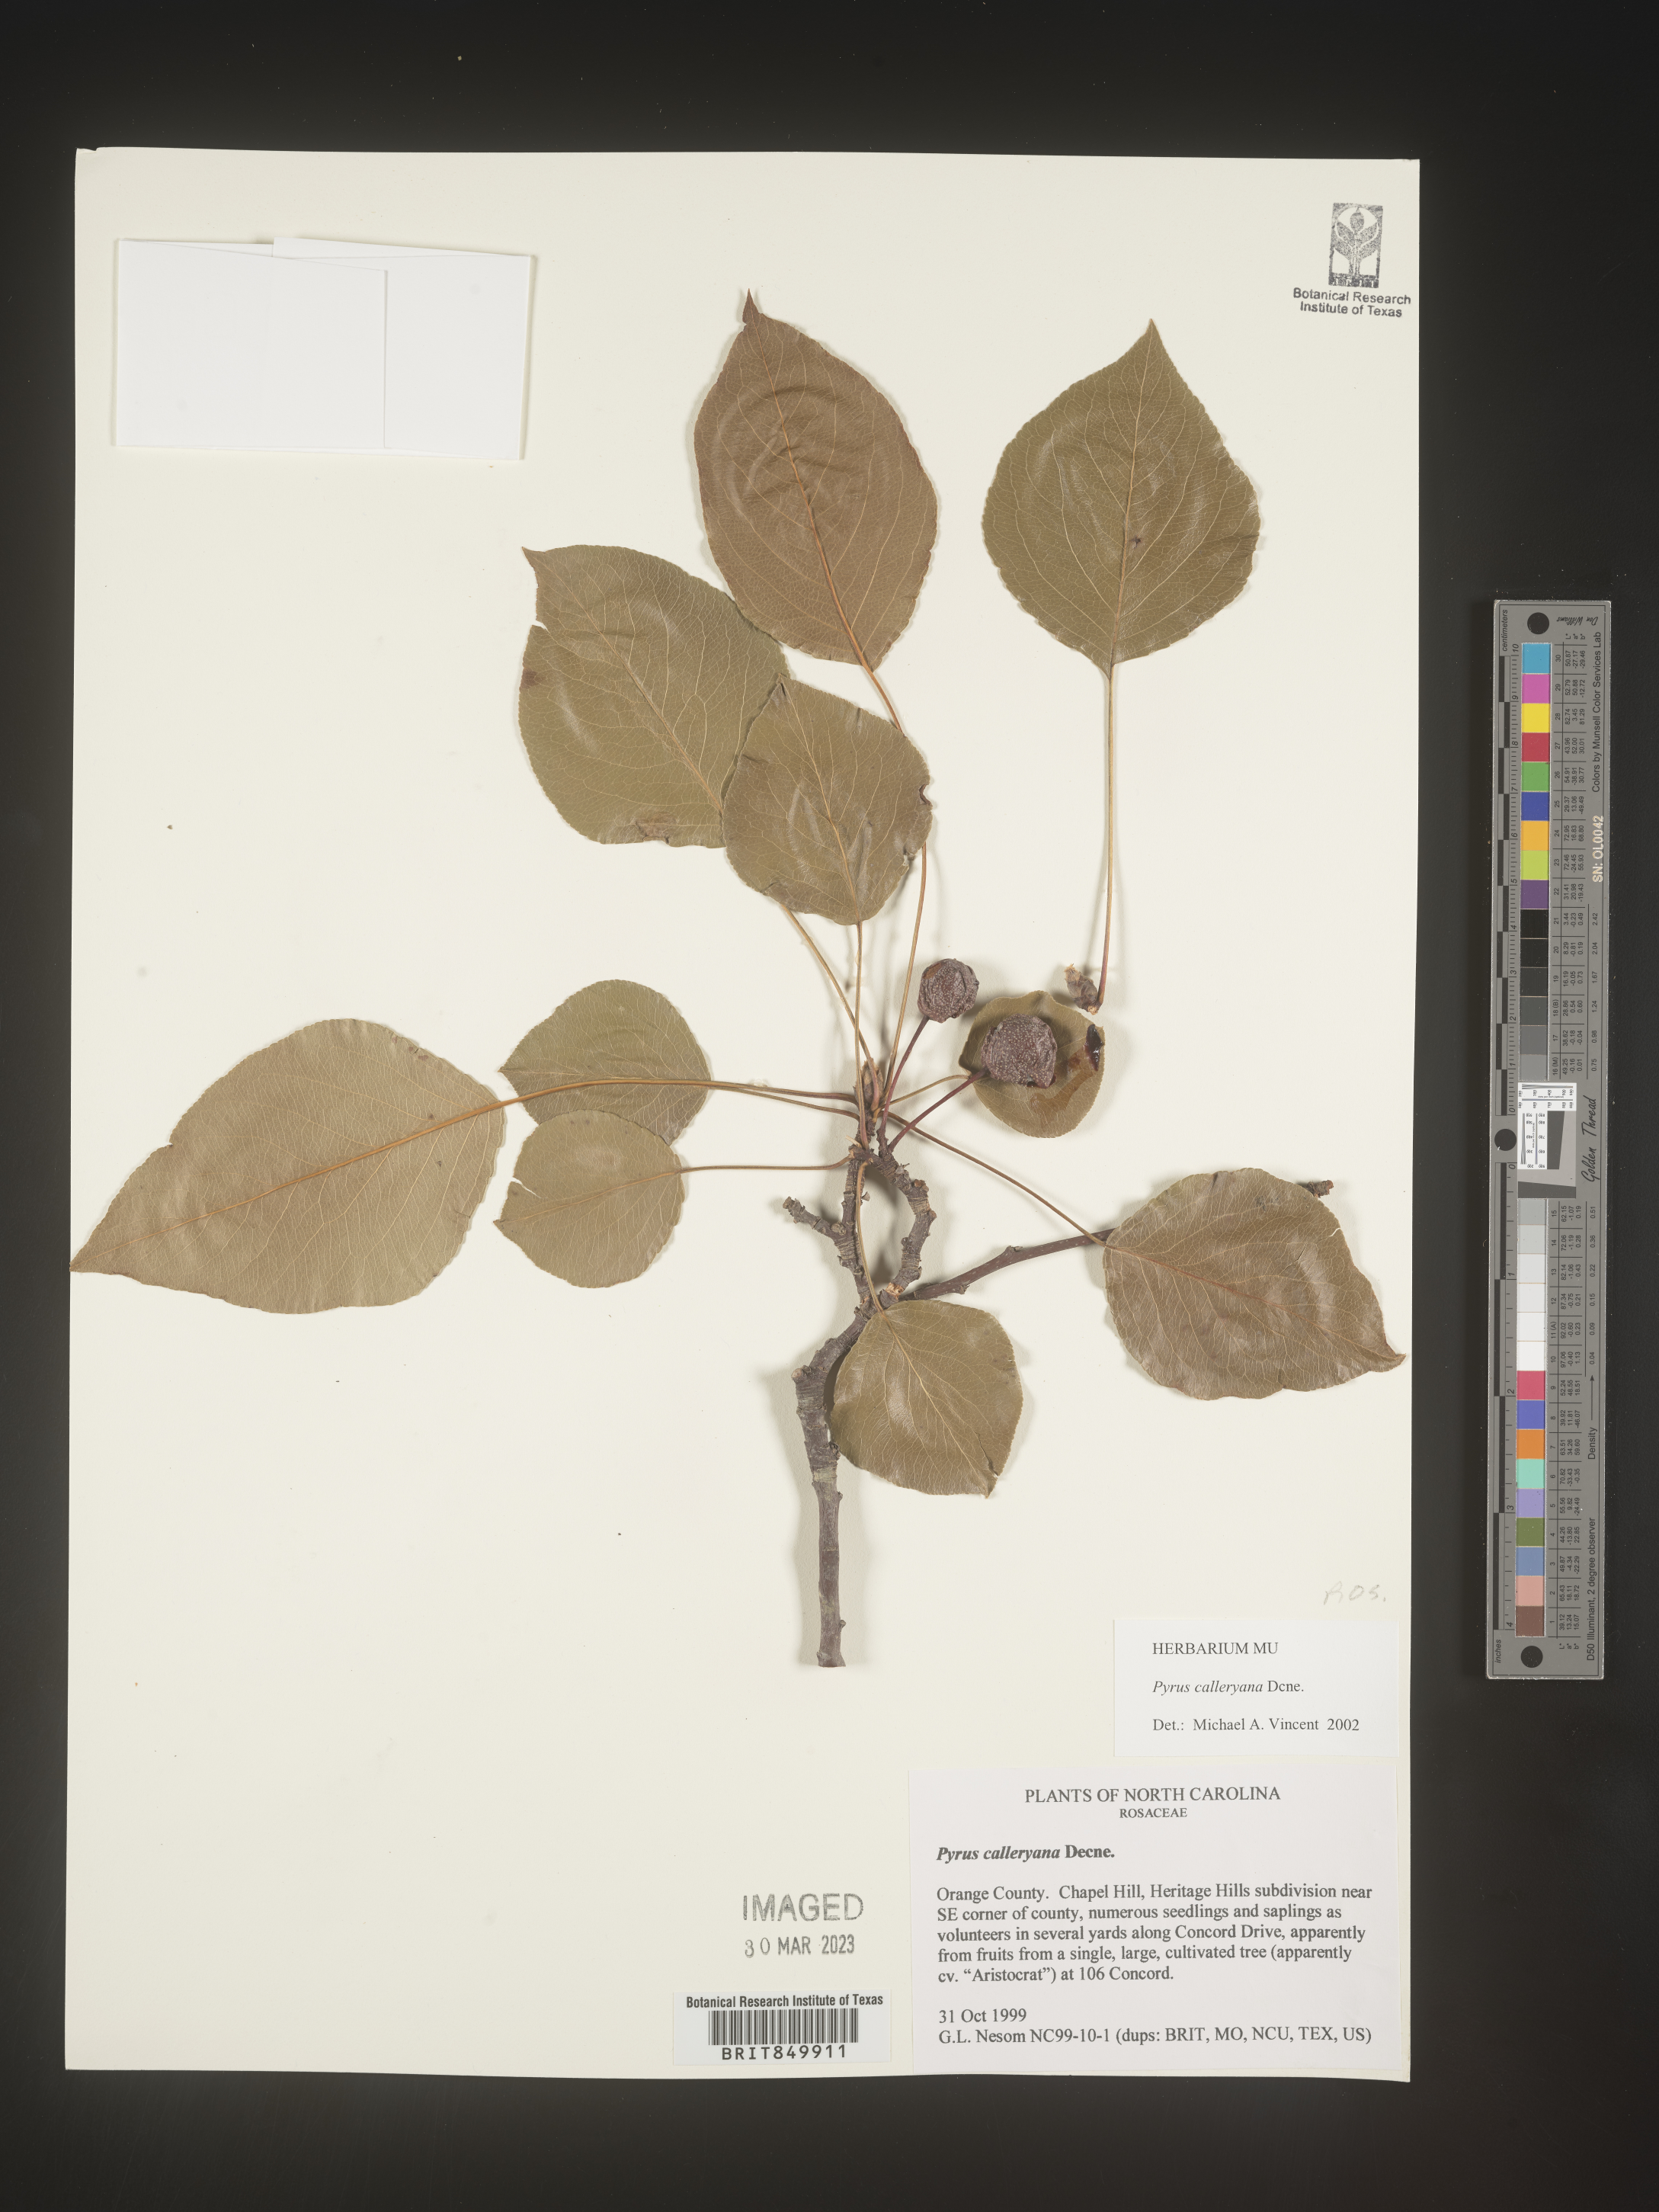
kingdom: Plantae
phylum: Tracheophyta
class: Magnoliopsida
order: Rosales
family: Rosaceae
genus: Pyrus
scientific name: Pyrus
